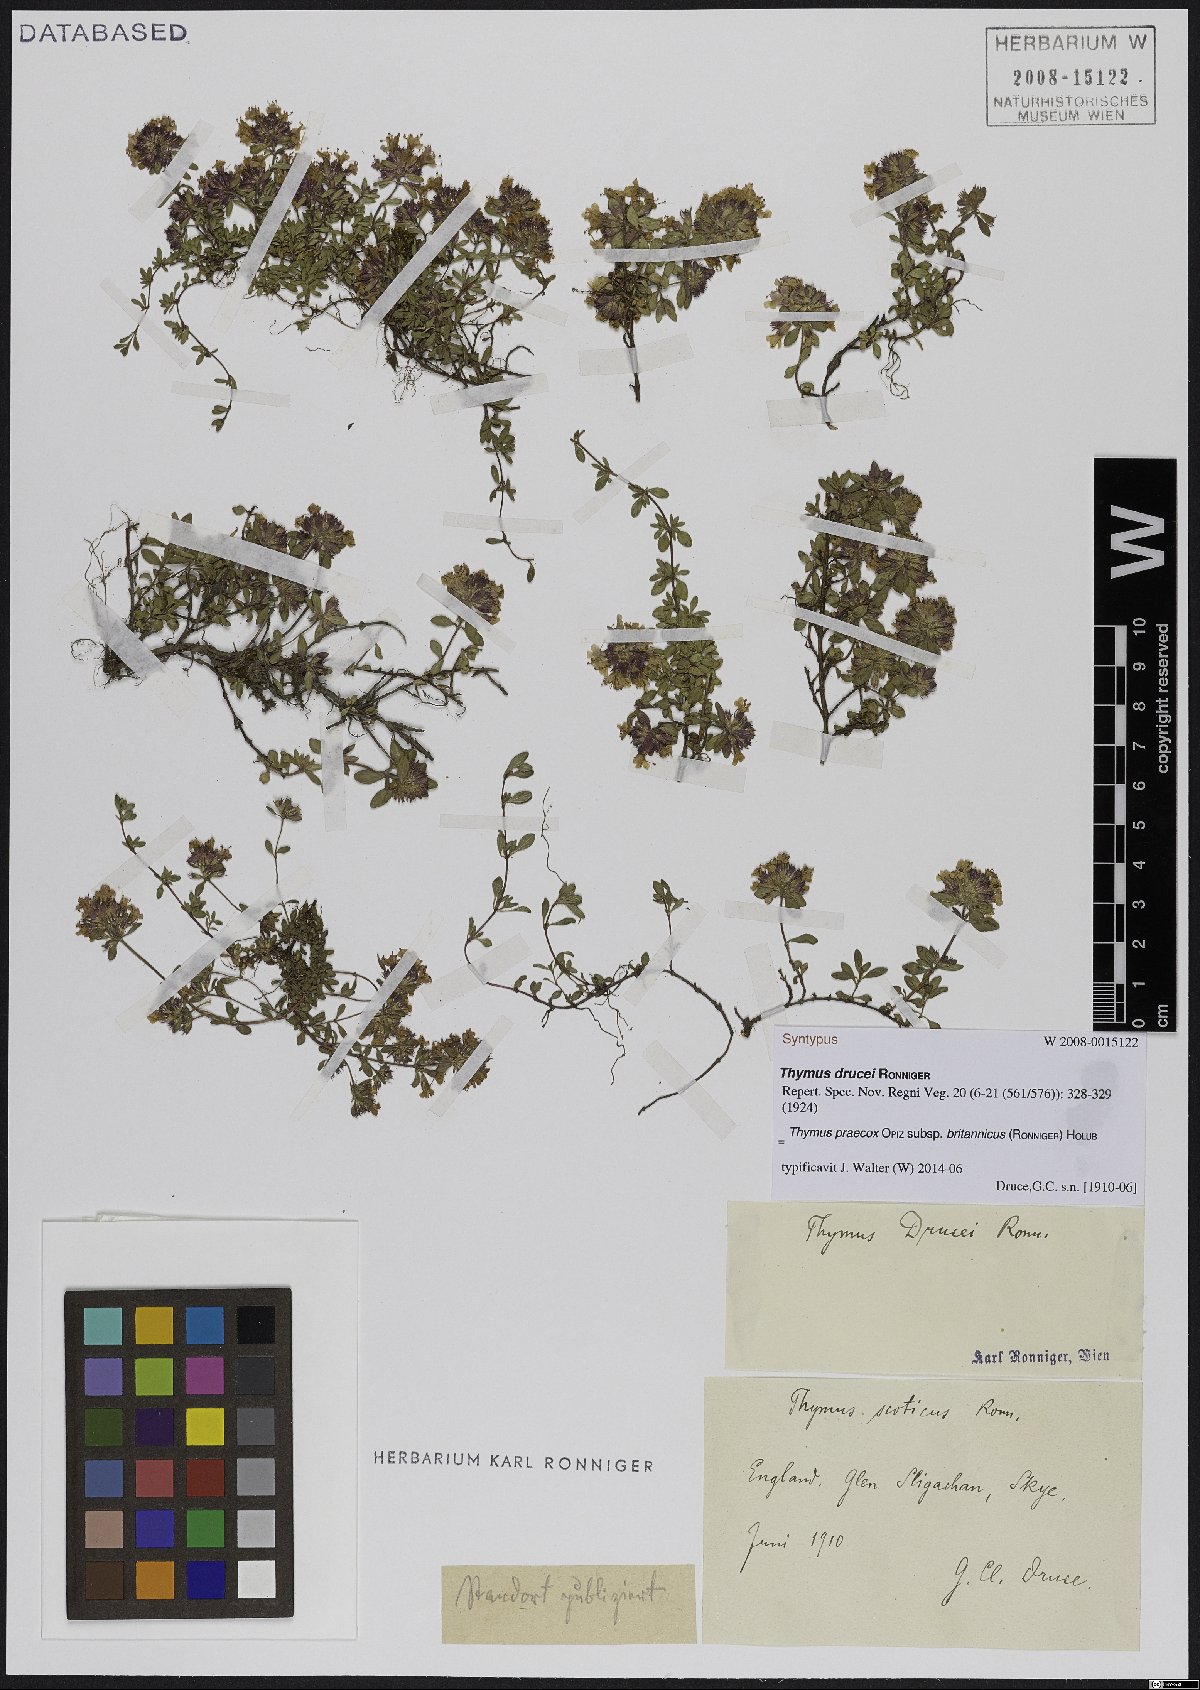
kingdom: Plantae
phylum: Tracheophyta
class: Magnoliopsida
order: Lamiales
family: Lamiaceae
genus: Thymus
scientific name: Thymus praecox
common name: Wild thyme
